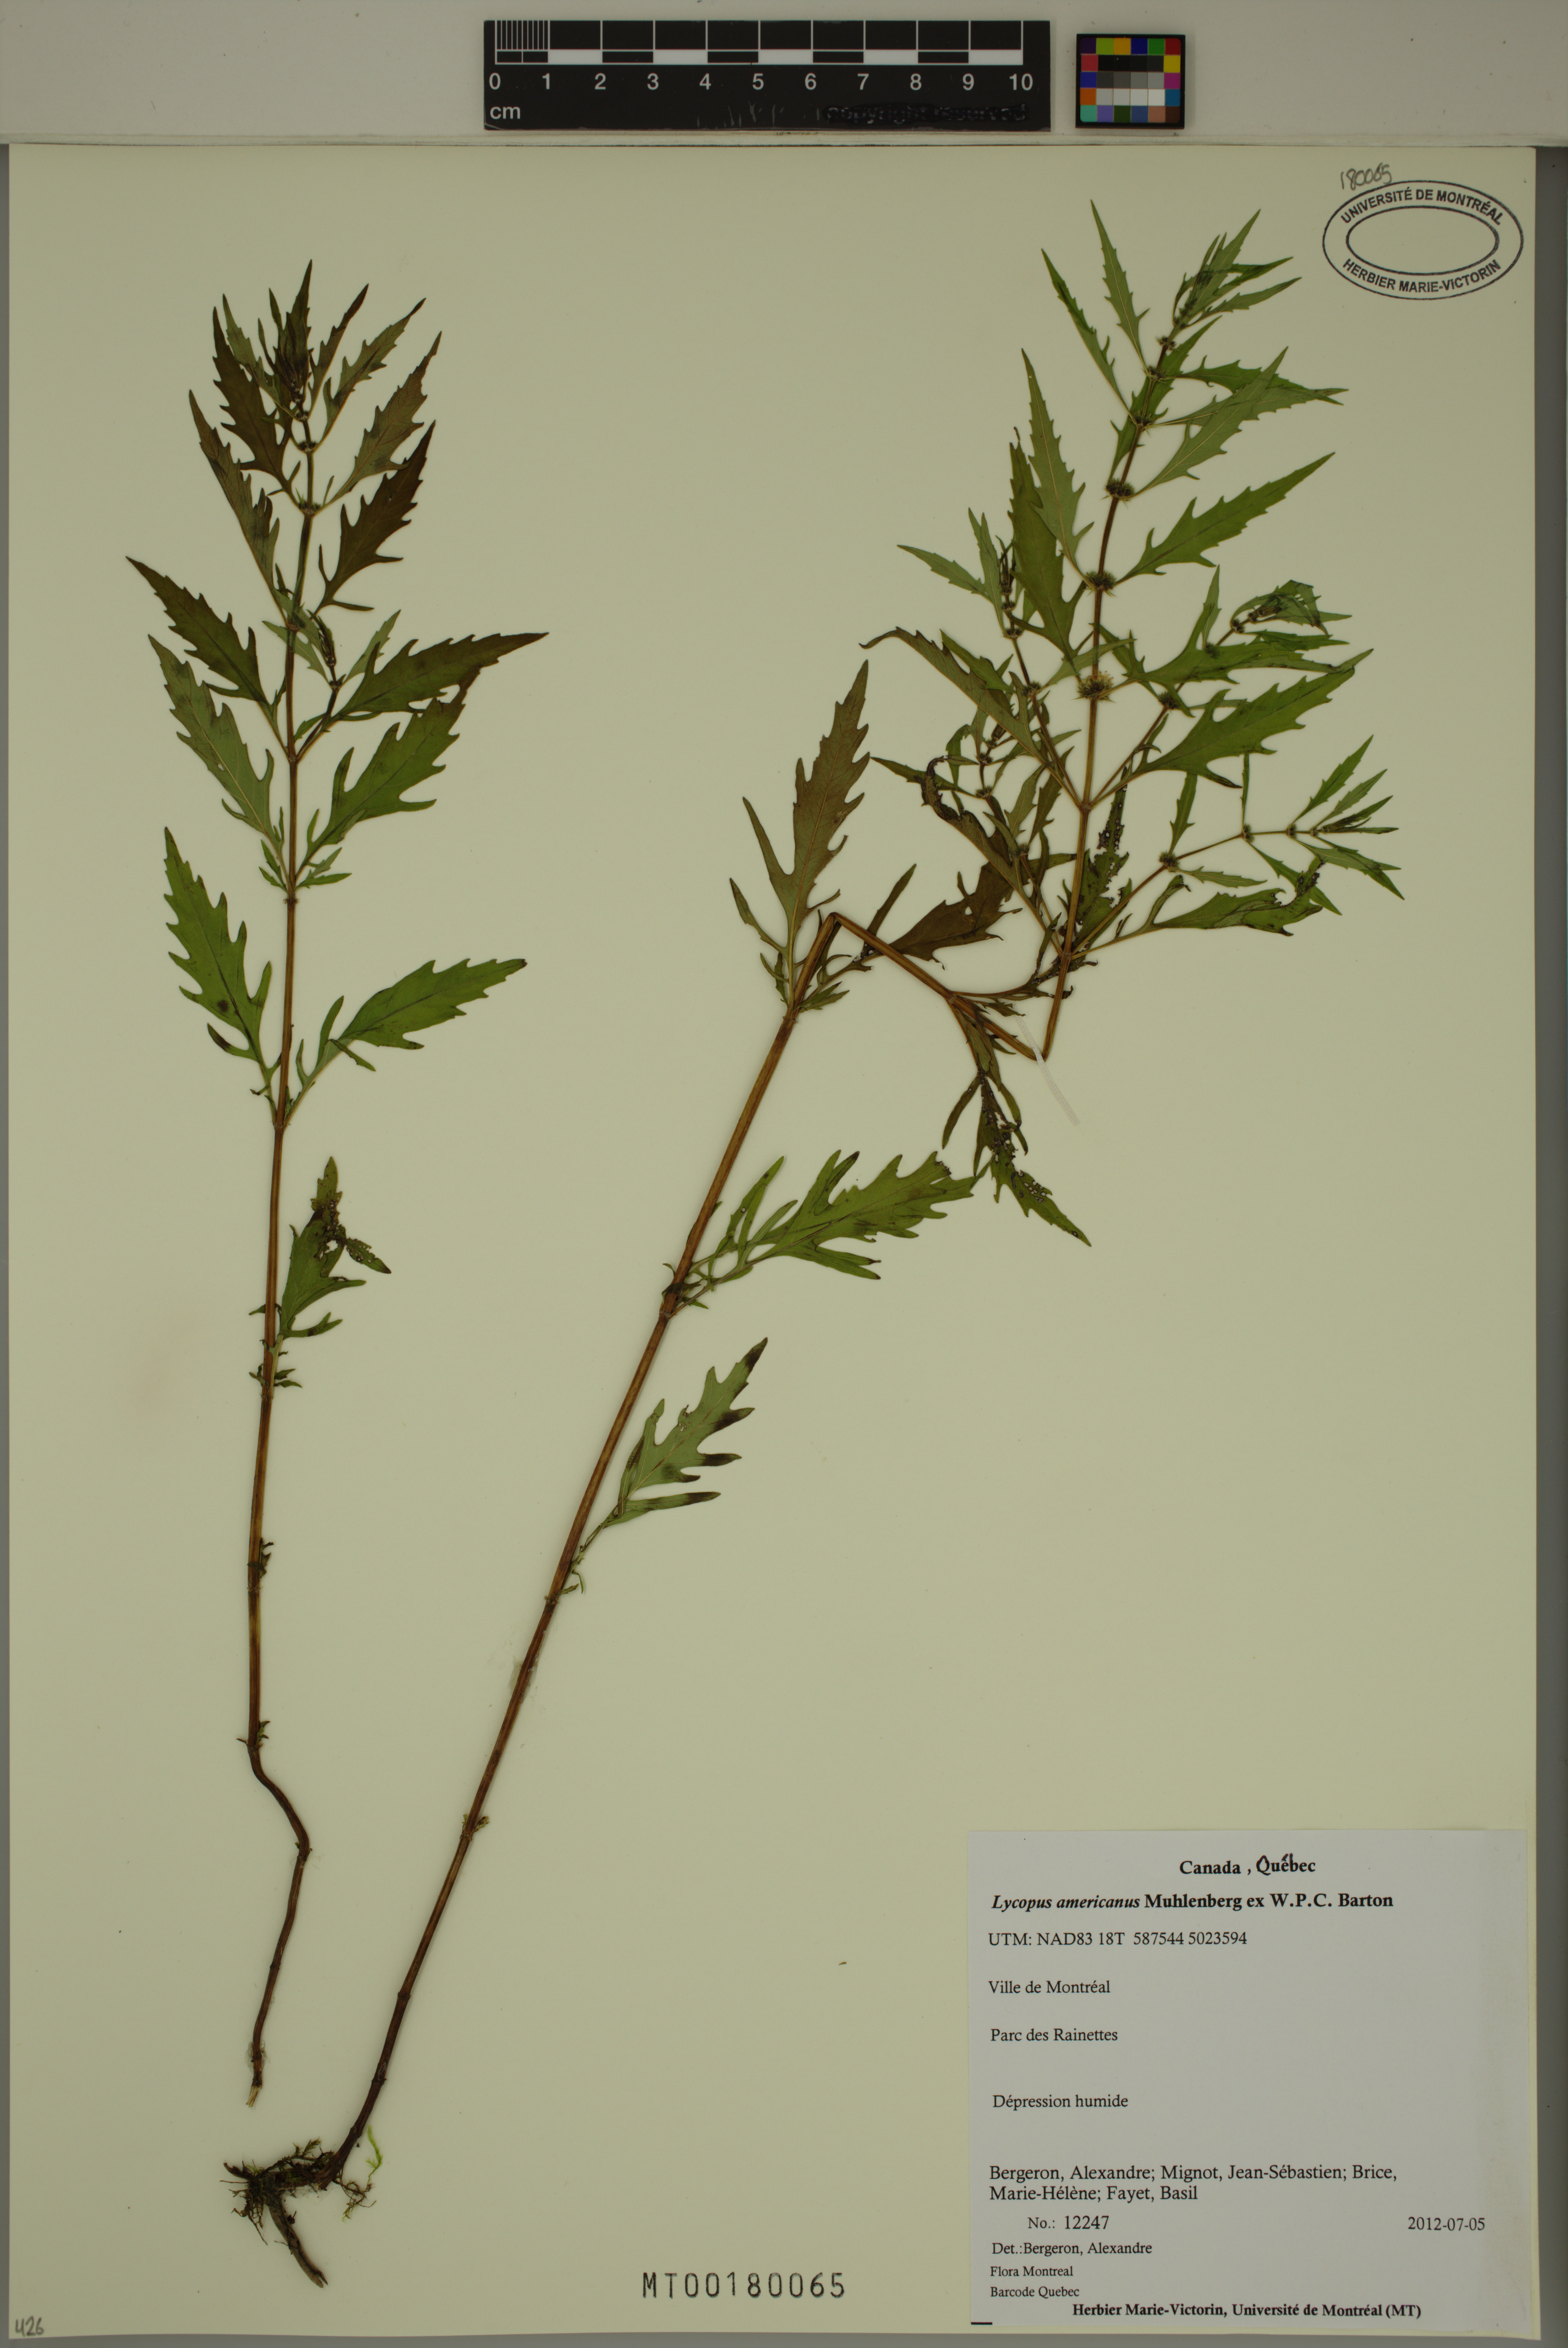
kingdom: Plantae
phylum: Tracheophyta
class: Magnoliopsida
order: Lamiales
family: Lamiaceae
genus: Lycopus
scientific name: Lycopus americanus
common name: American bugleweed
